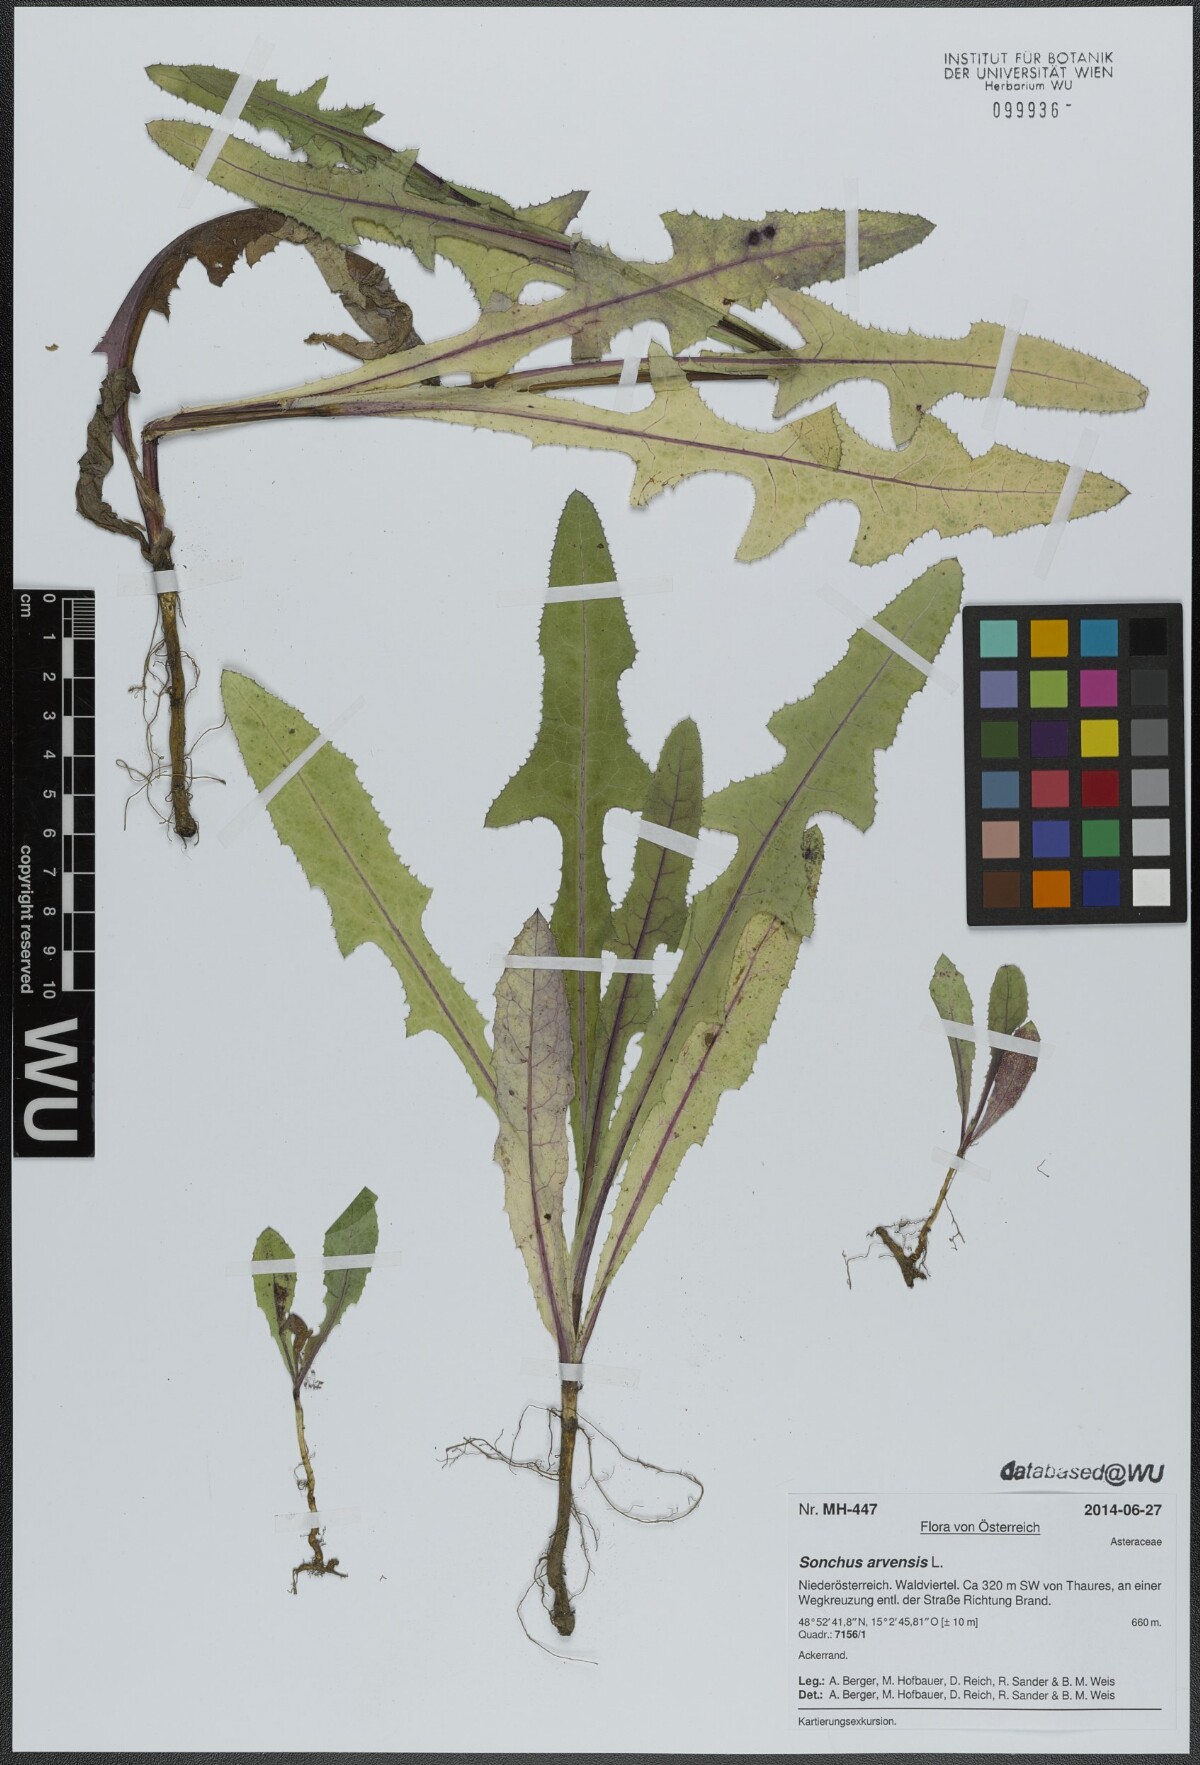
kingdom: Plantae
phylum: Tracheophyta
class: Magnoliopsida
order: Asterales
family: Asteraceae
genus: Sonchus
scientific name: Sonchus arvensis
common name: Perennial sow-thistle
